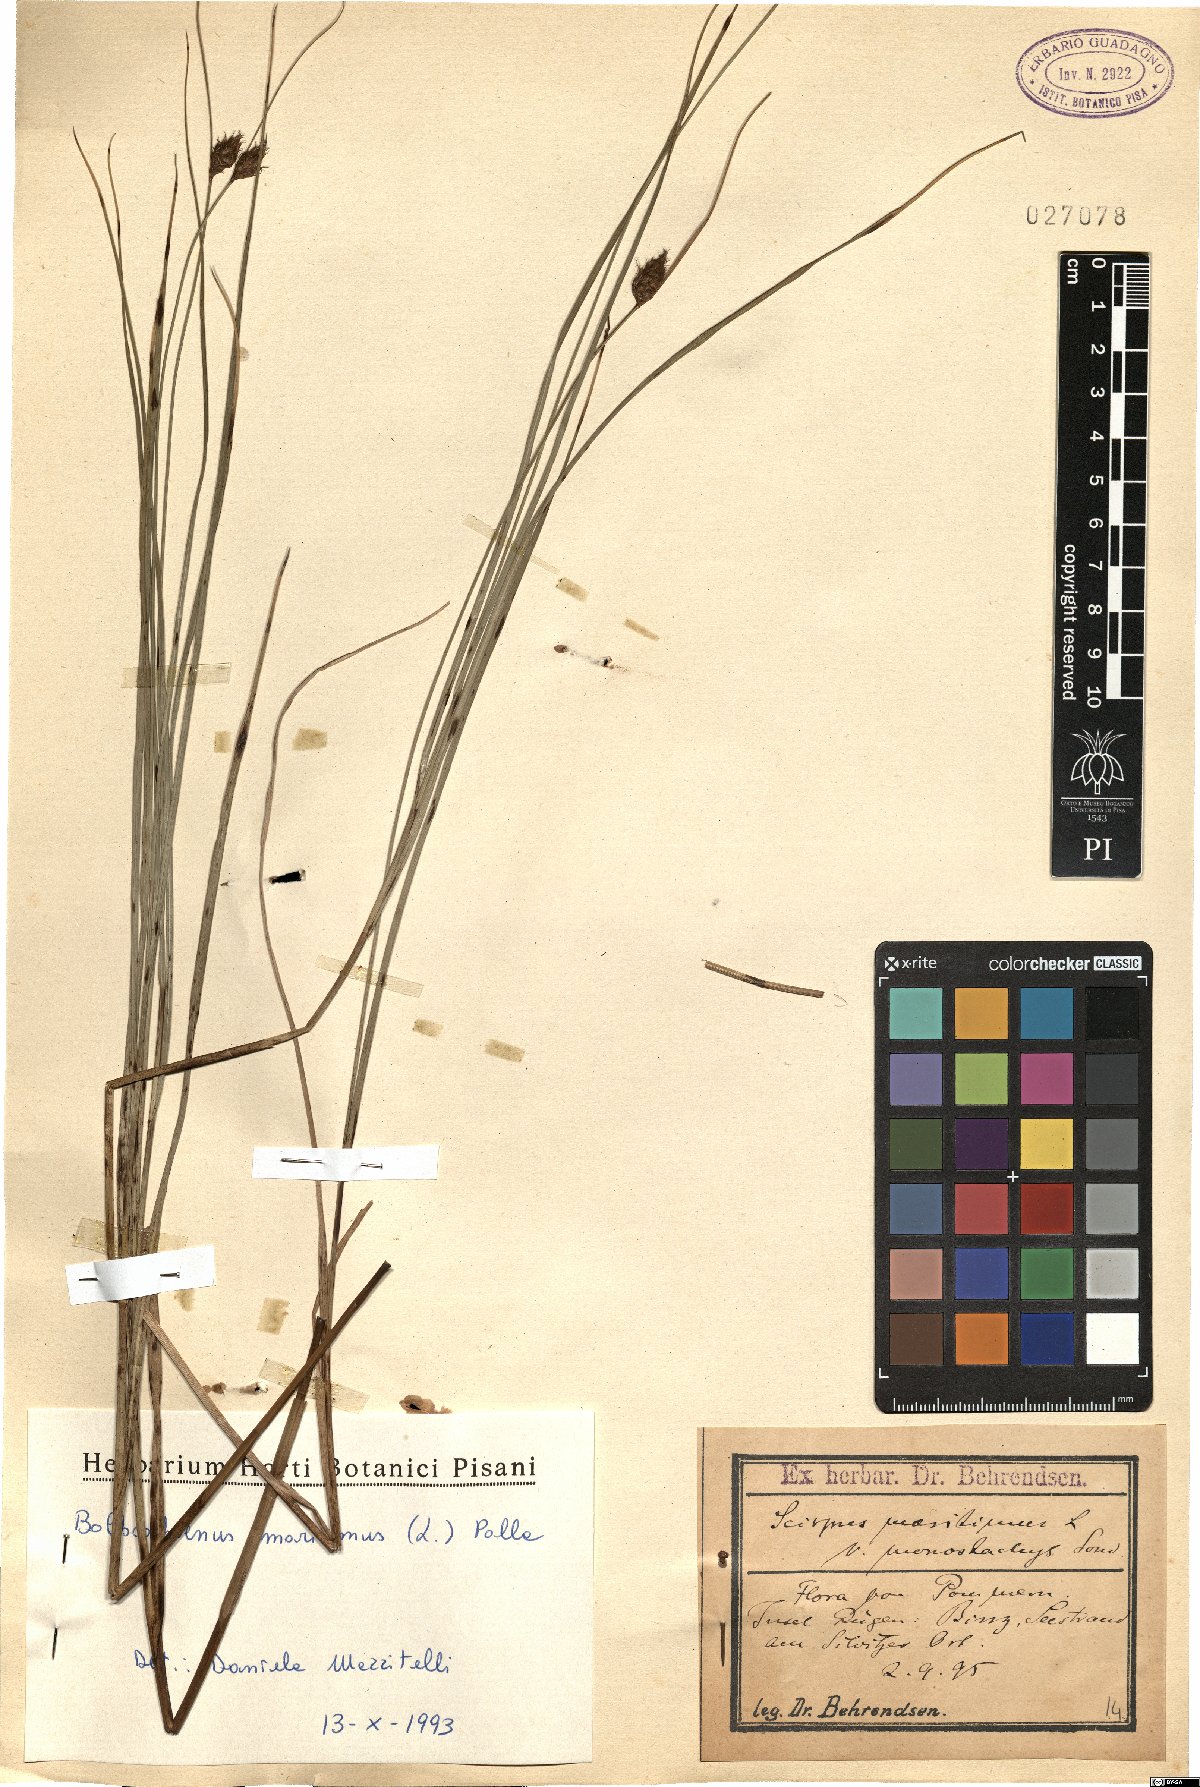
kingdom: Plantae
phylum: Tracheophyta
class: Liliopsida
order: Poales
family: Cyperaceae
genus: Bolboschoenus
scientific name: Bolboschoenus maritimus
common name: Sea club-rush
